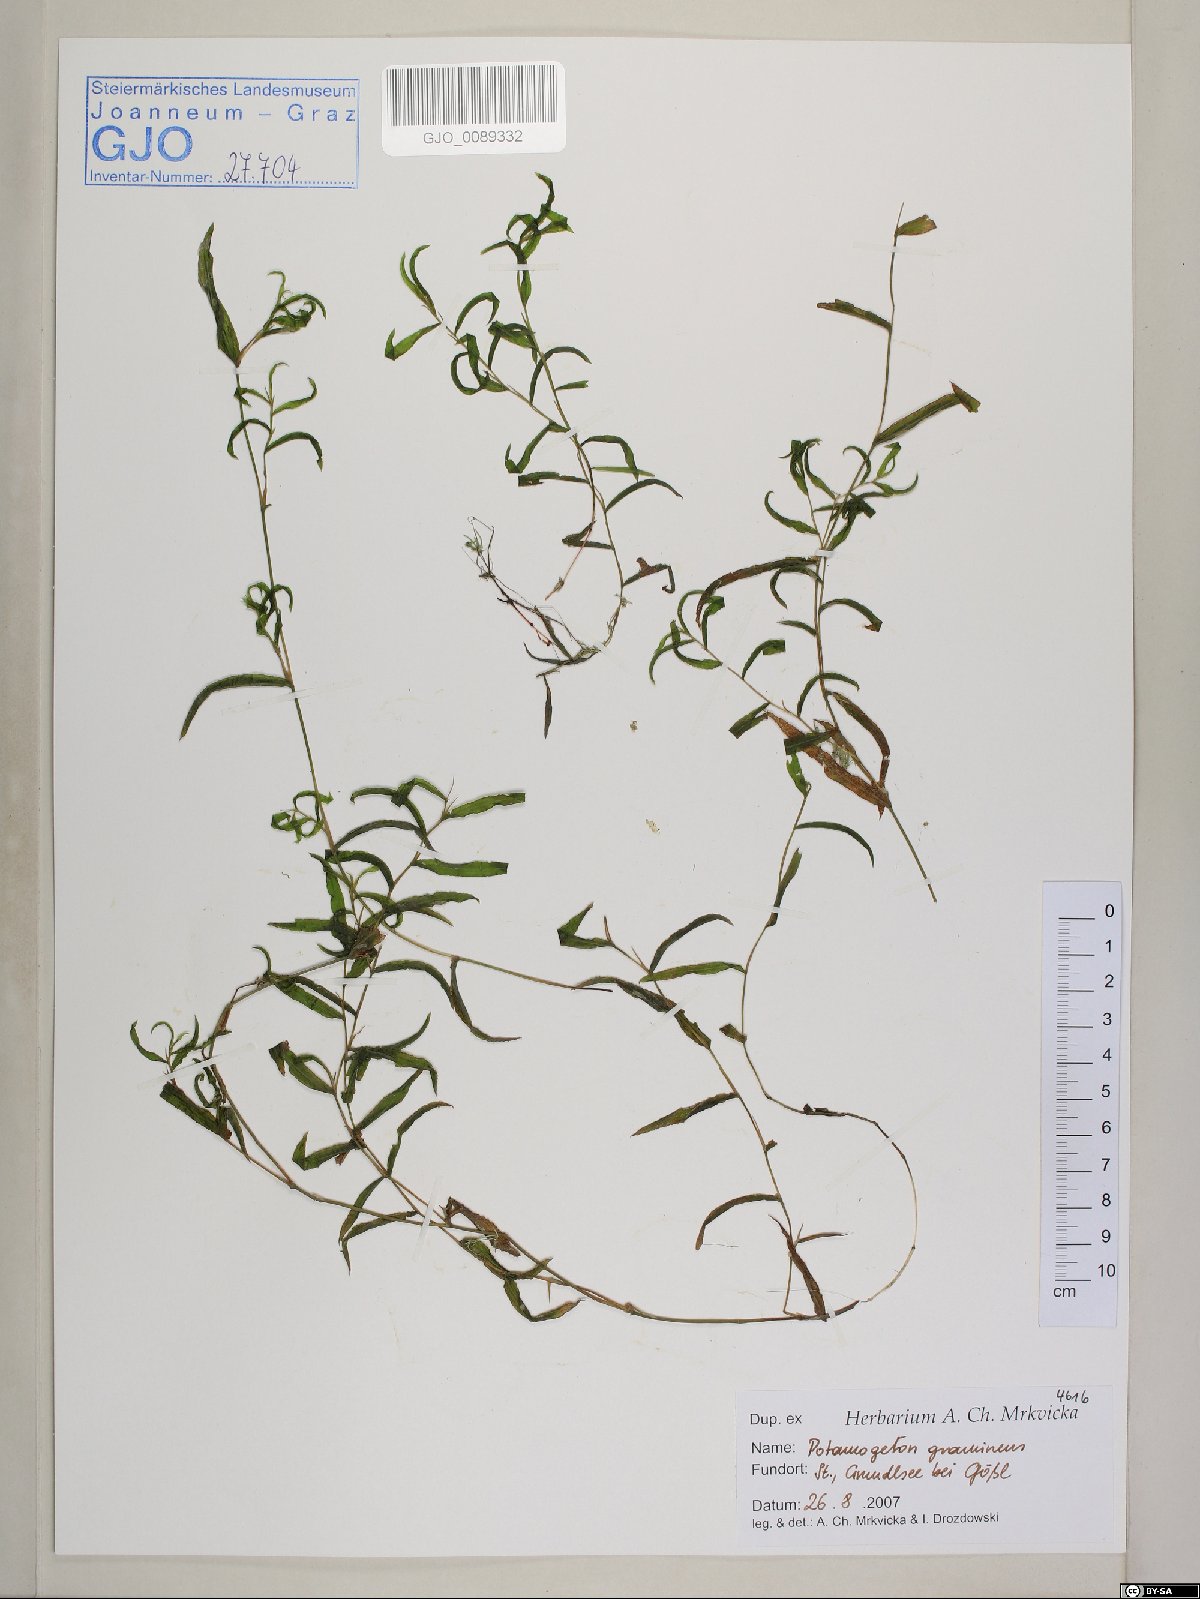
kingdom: Plantae
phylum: Tracheophyta
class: Liliopsida
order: Alismatales
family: Potamogetonaceae
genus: Potamogeton
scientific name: Potamogeton gramineus
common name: Various-leaved pondweed
